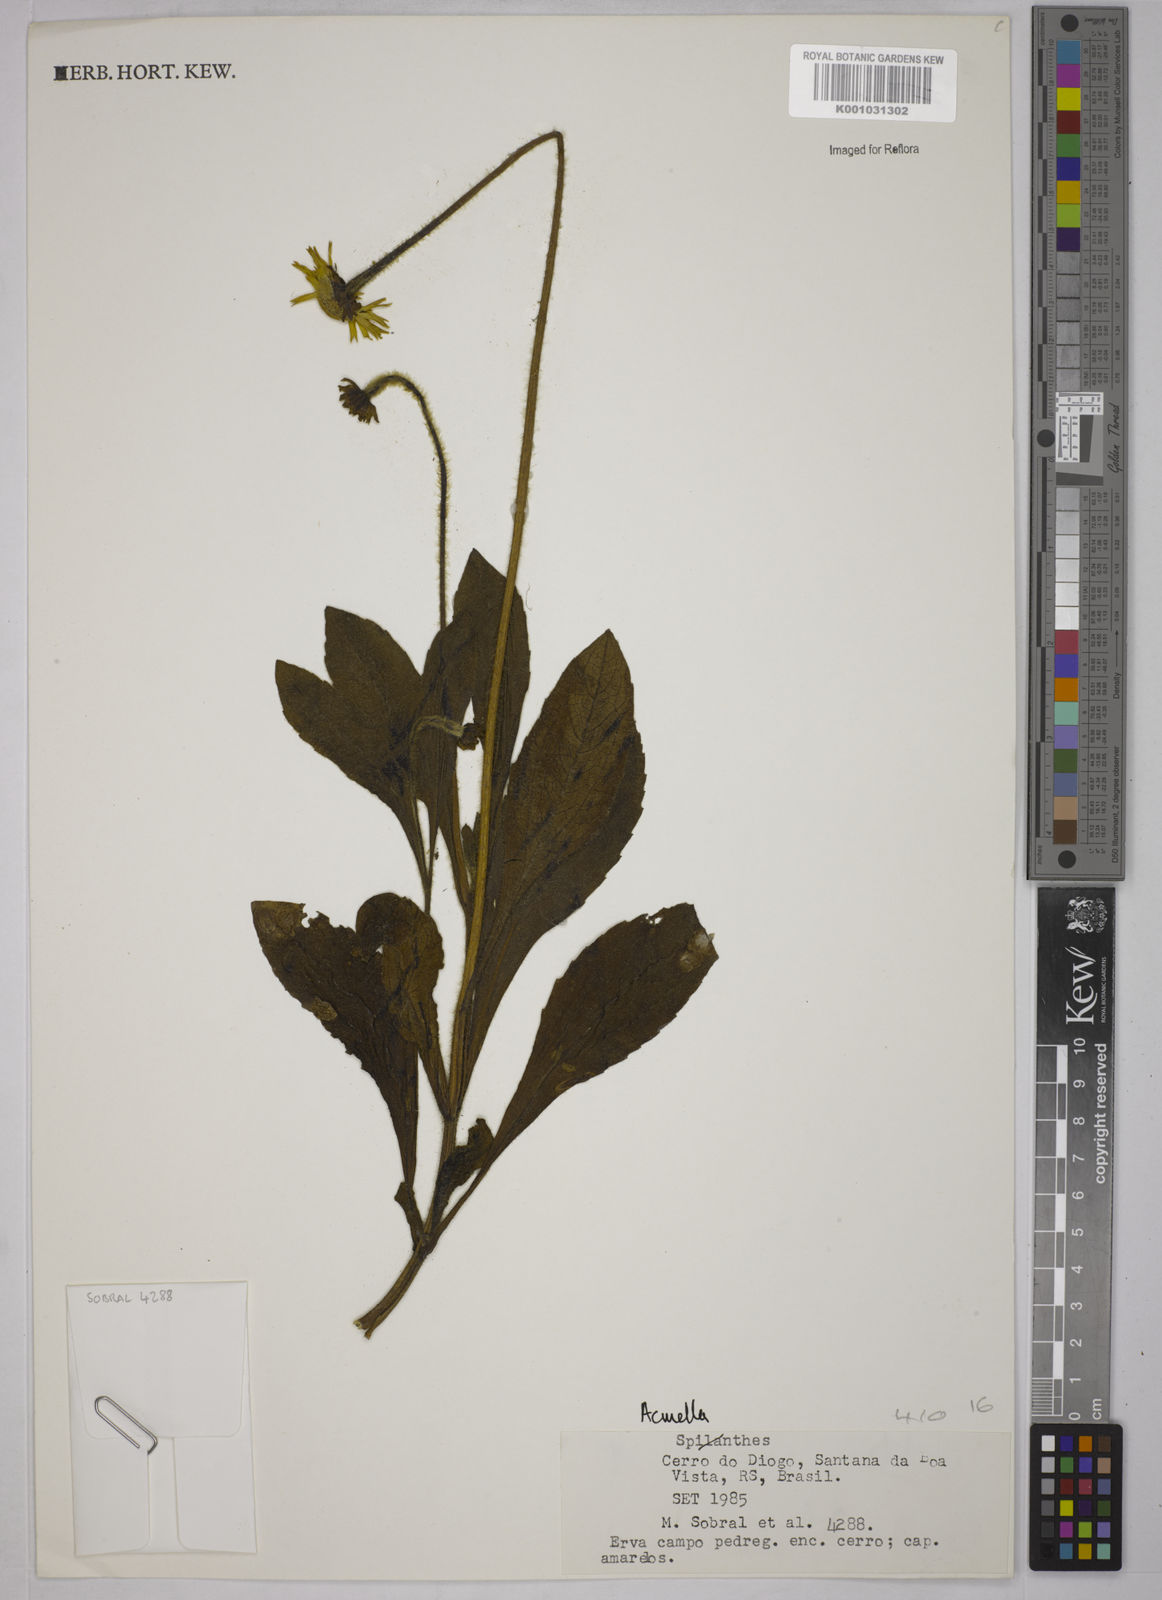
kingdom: Plantae
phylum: Tracheophyta
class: Magnoliopsida
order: Asterales
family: Asteraceae
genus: Acmella
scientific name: Acmella
